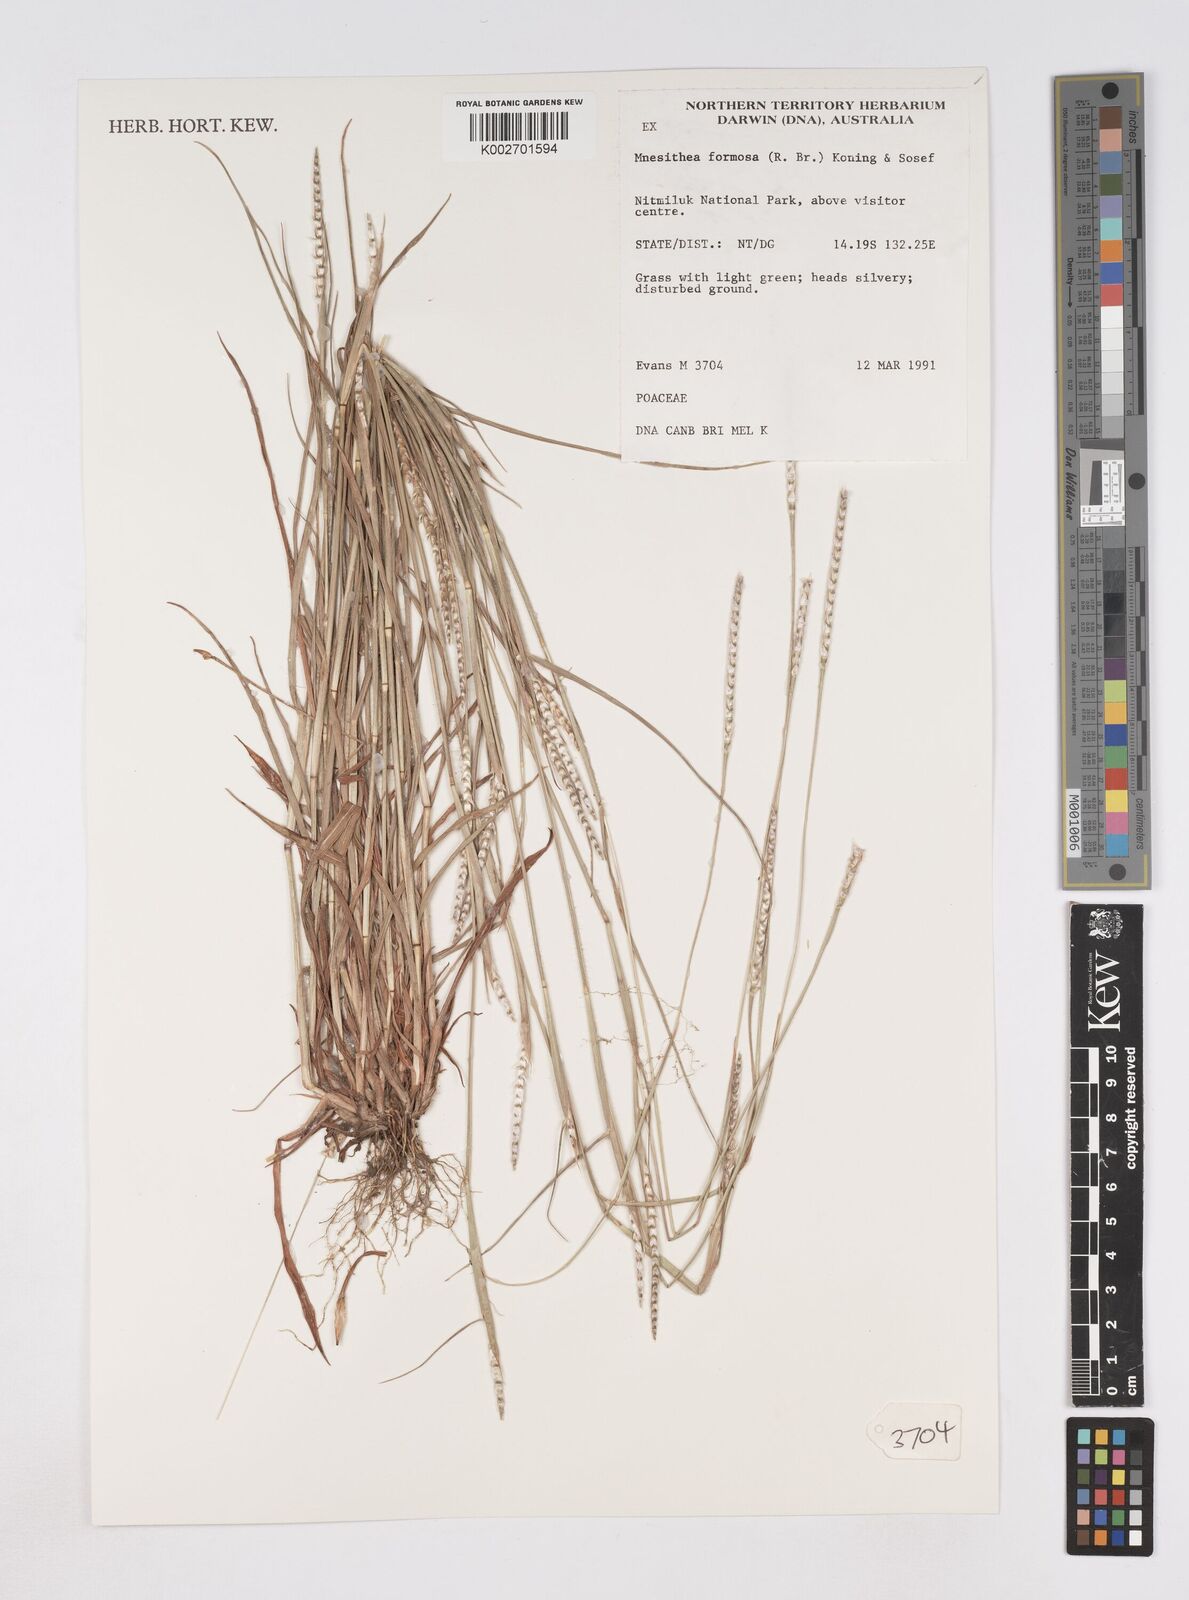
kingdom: Plantae
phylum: Tracheophyta
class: Liliopsida
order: Poales
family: Poaceae
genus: Heteropholis
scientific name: Heteropholis
